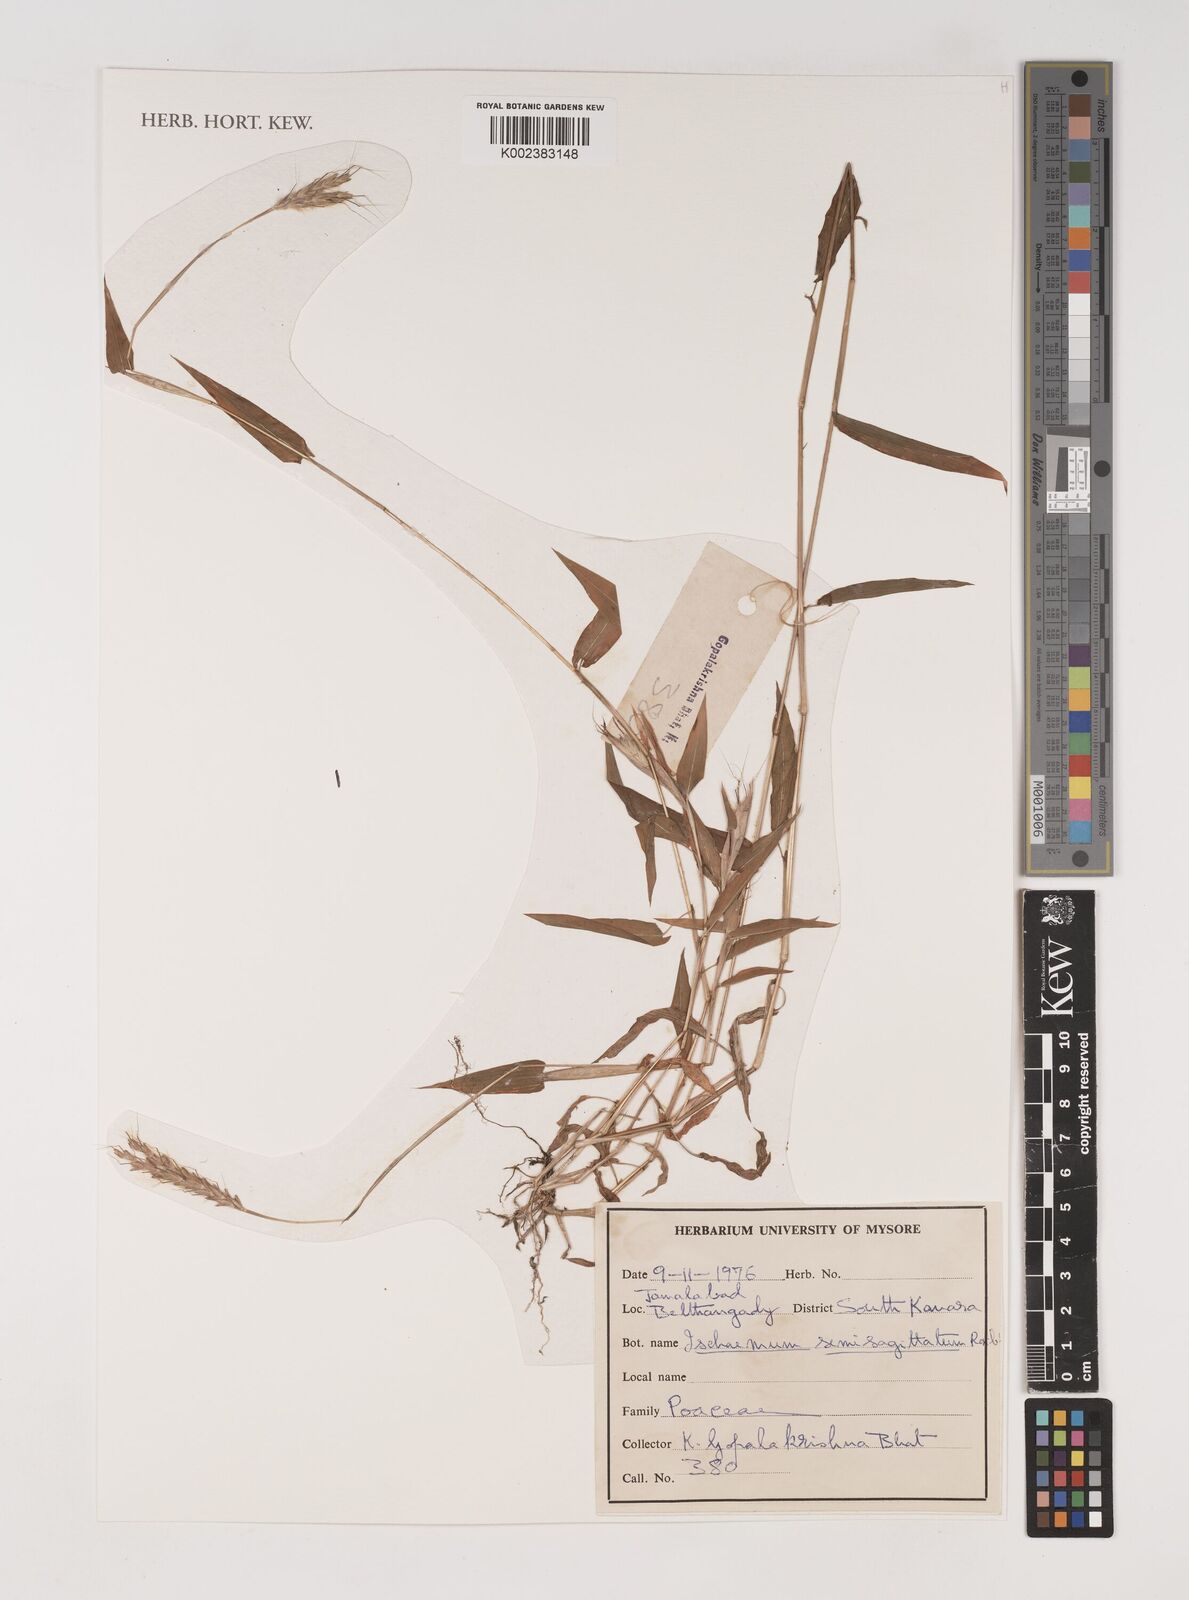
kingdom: Plantae
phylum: Tracheophyta
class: Liliopsida
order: Poales
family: Poaceae
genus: Ischaemum
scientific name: Ischaemum semisagittatum
